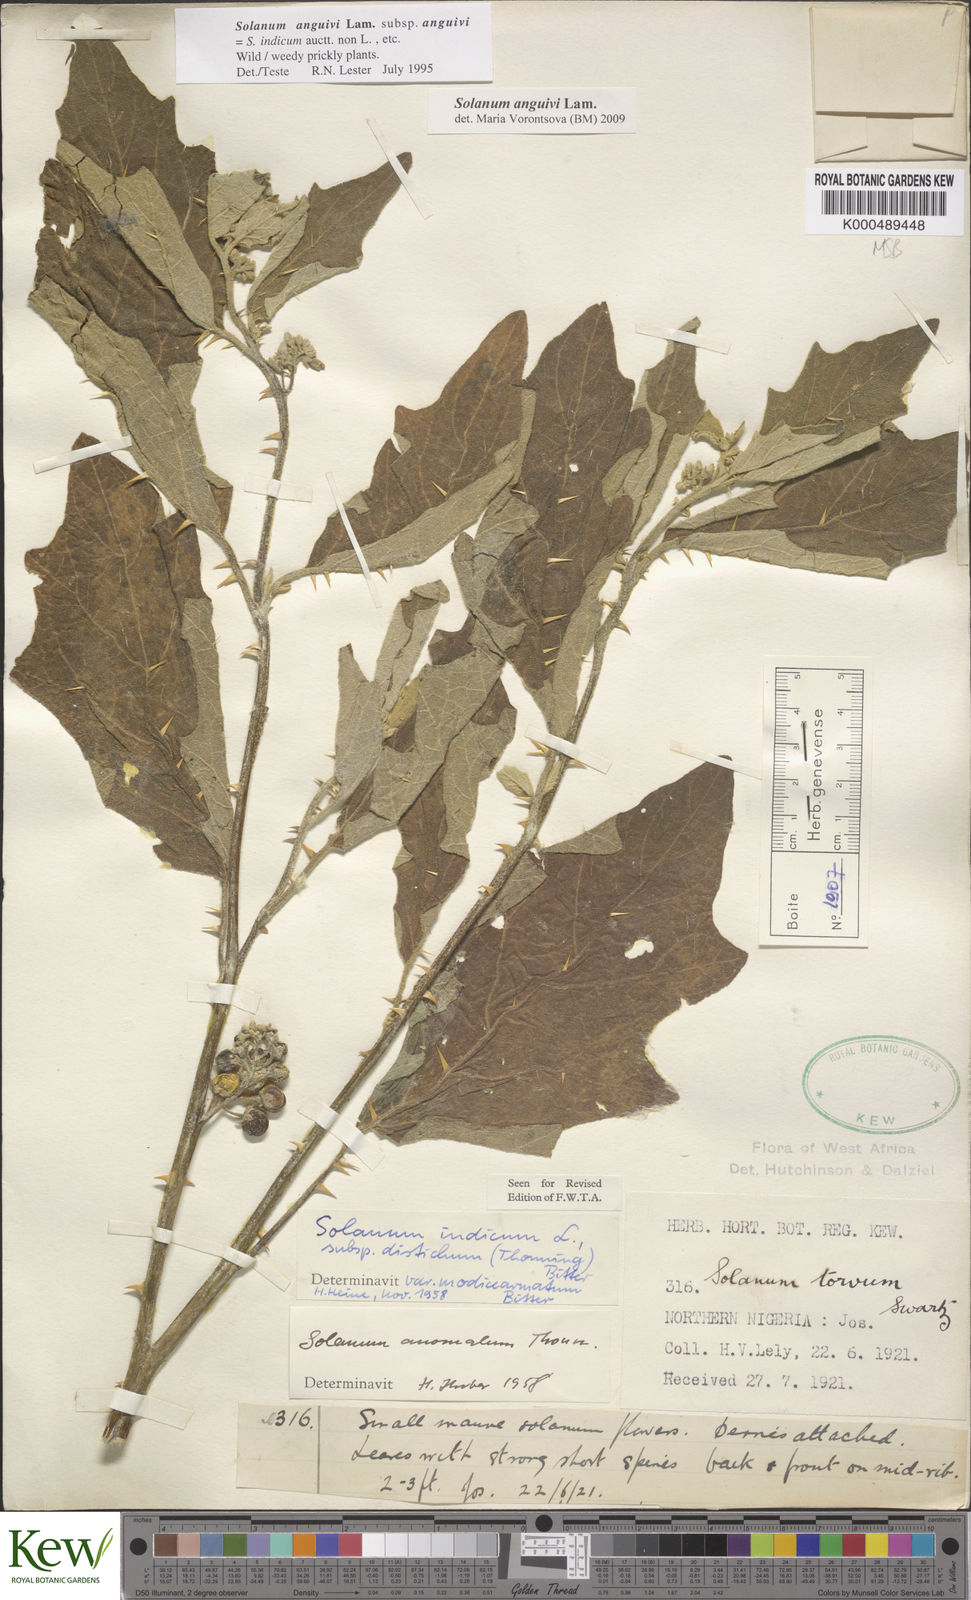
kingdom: Plantae
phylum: Tracheophyta
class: Magnoliopsida
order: Solanales
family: Solanaceae
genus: Solanum
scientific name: Solanum anguivi
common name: Forest bitterberry
